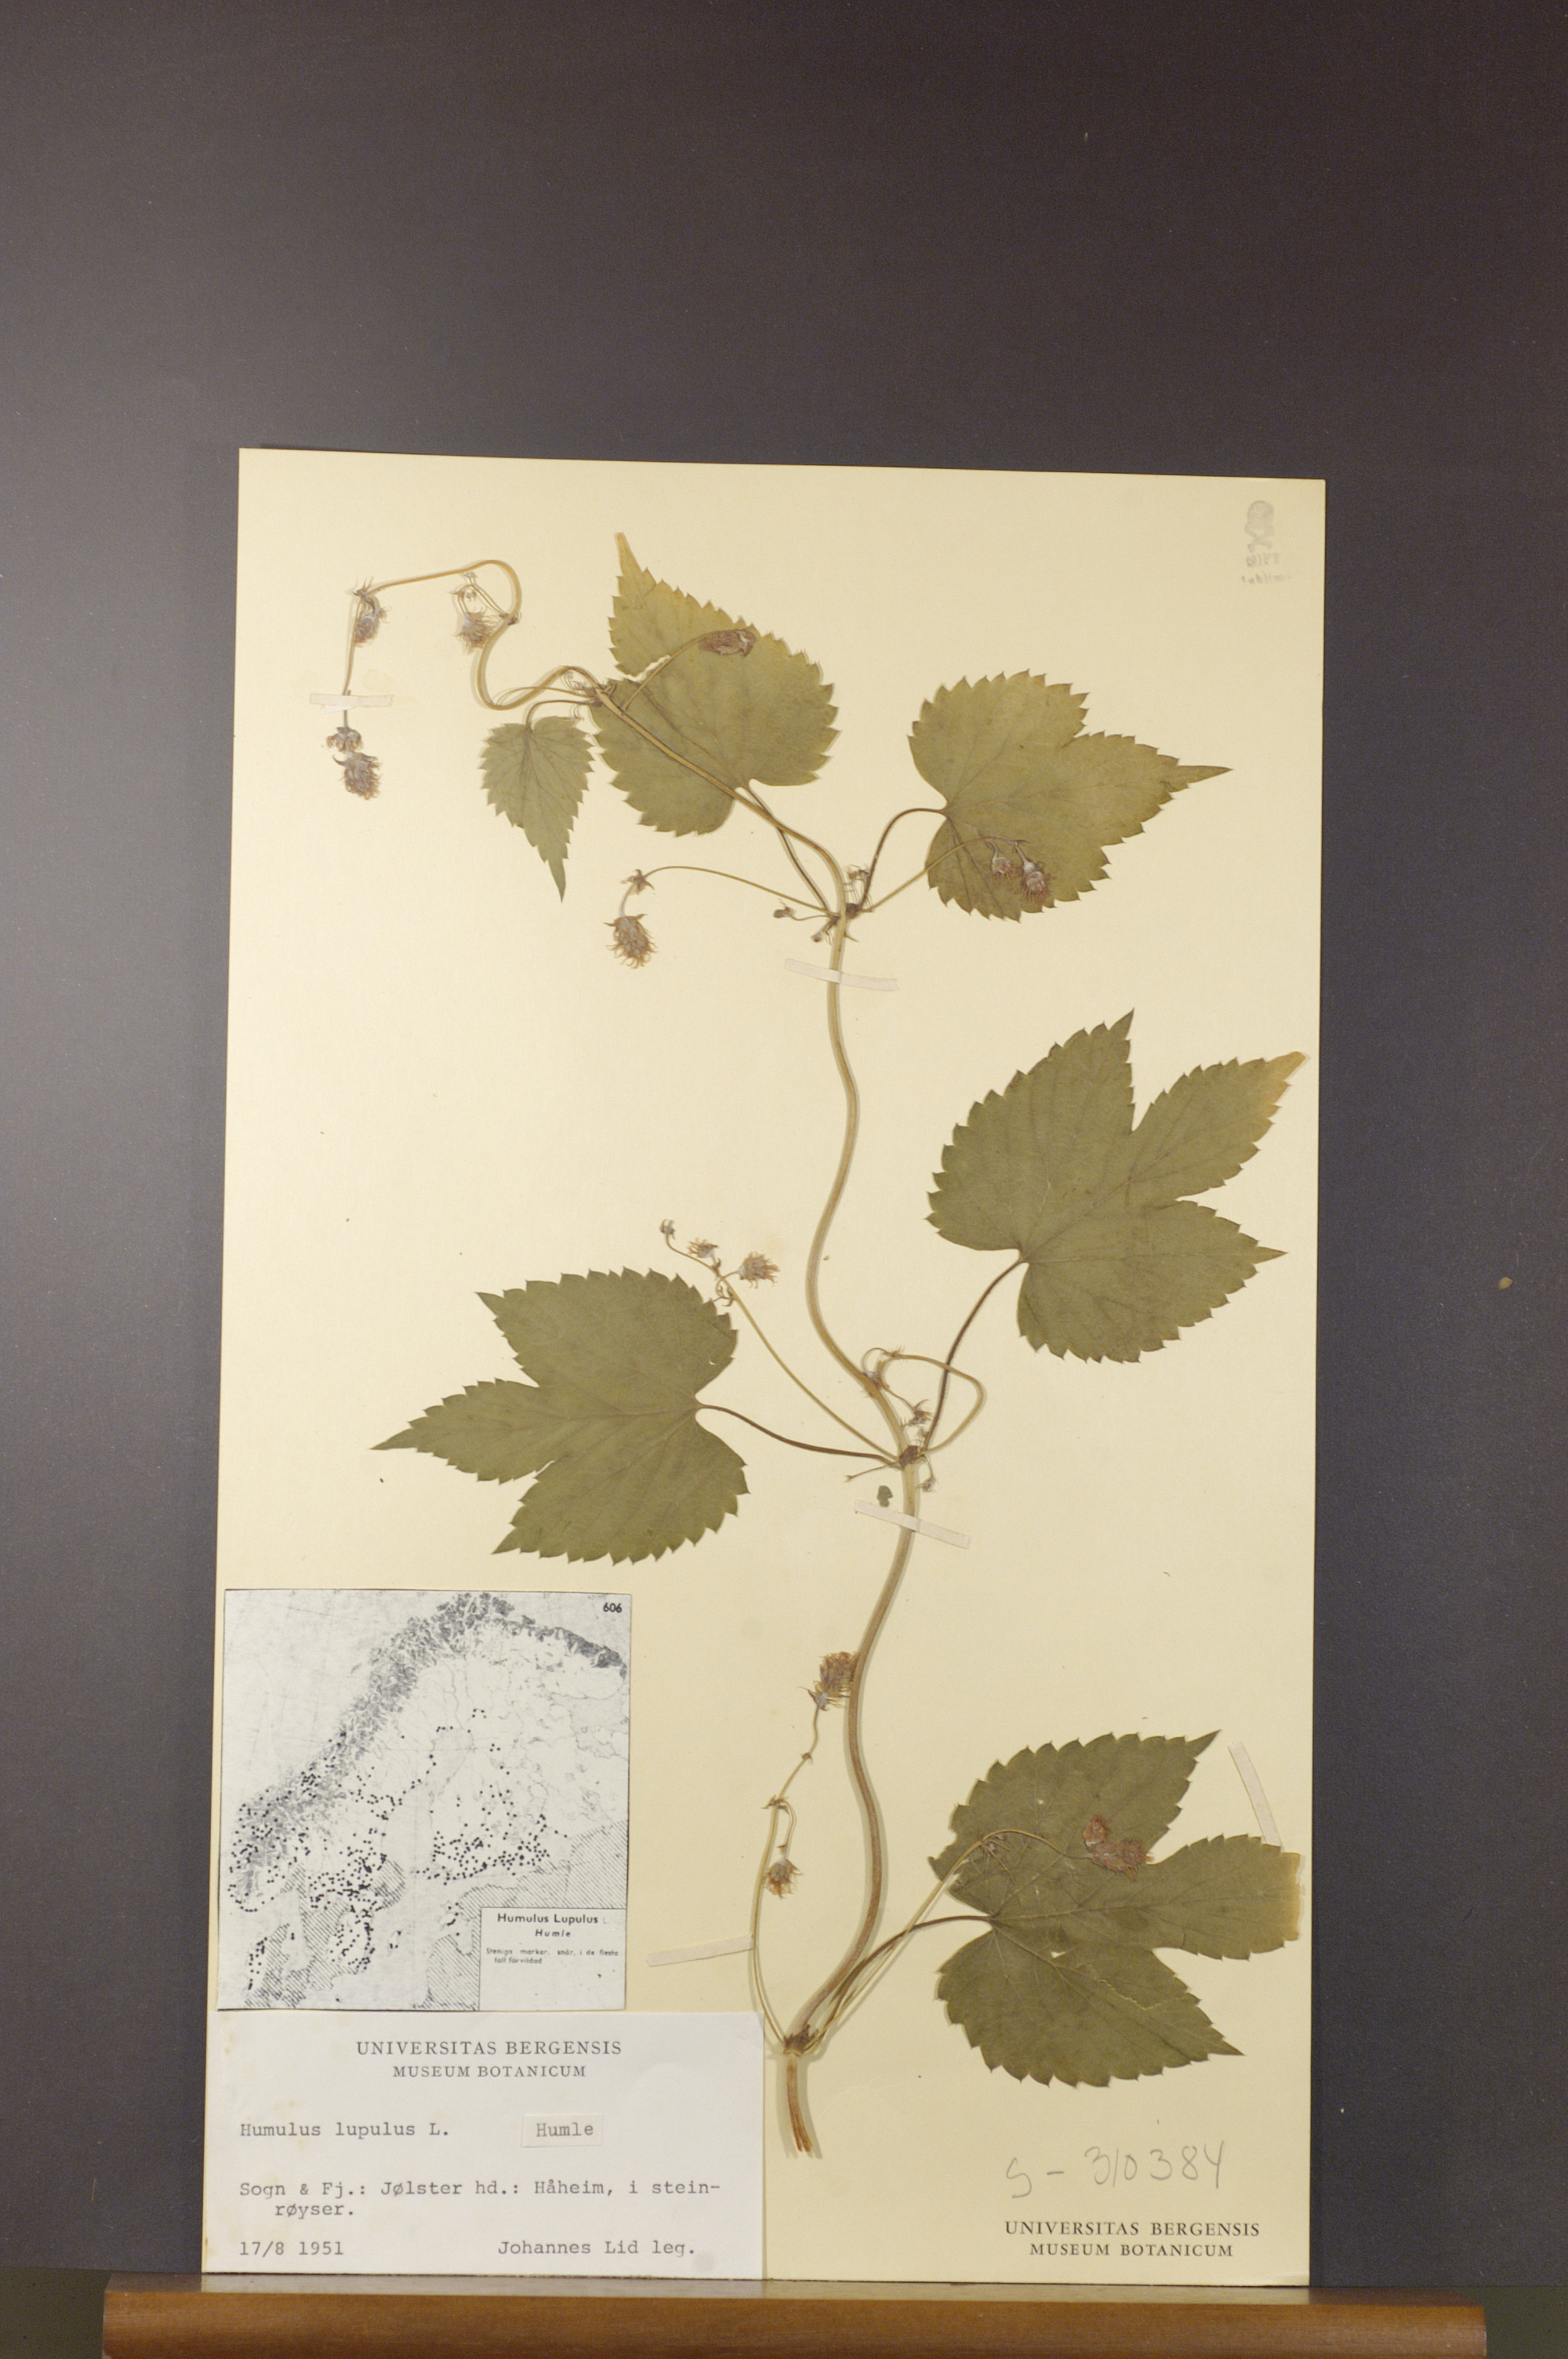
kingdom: Plantae
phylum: Tracheophyta
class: Magnoliopsida
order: Rosales
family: Cannabaceae
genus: Humulus
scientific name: Humulus lupulus
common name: Hop
